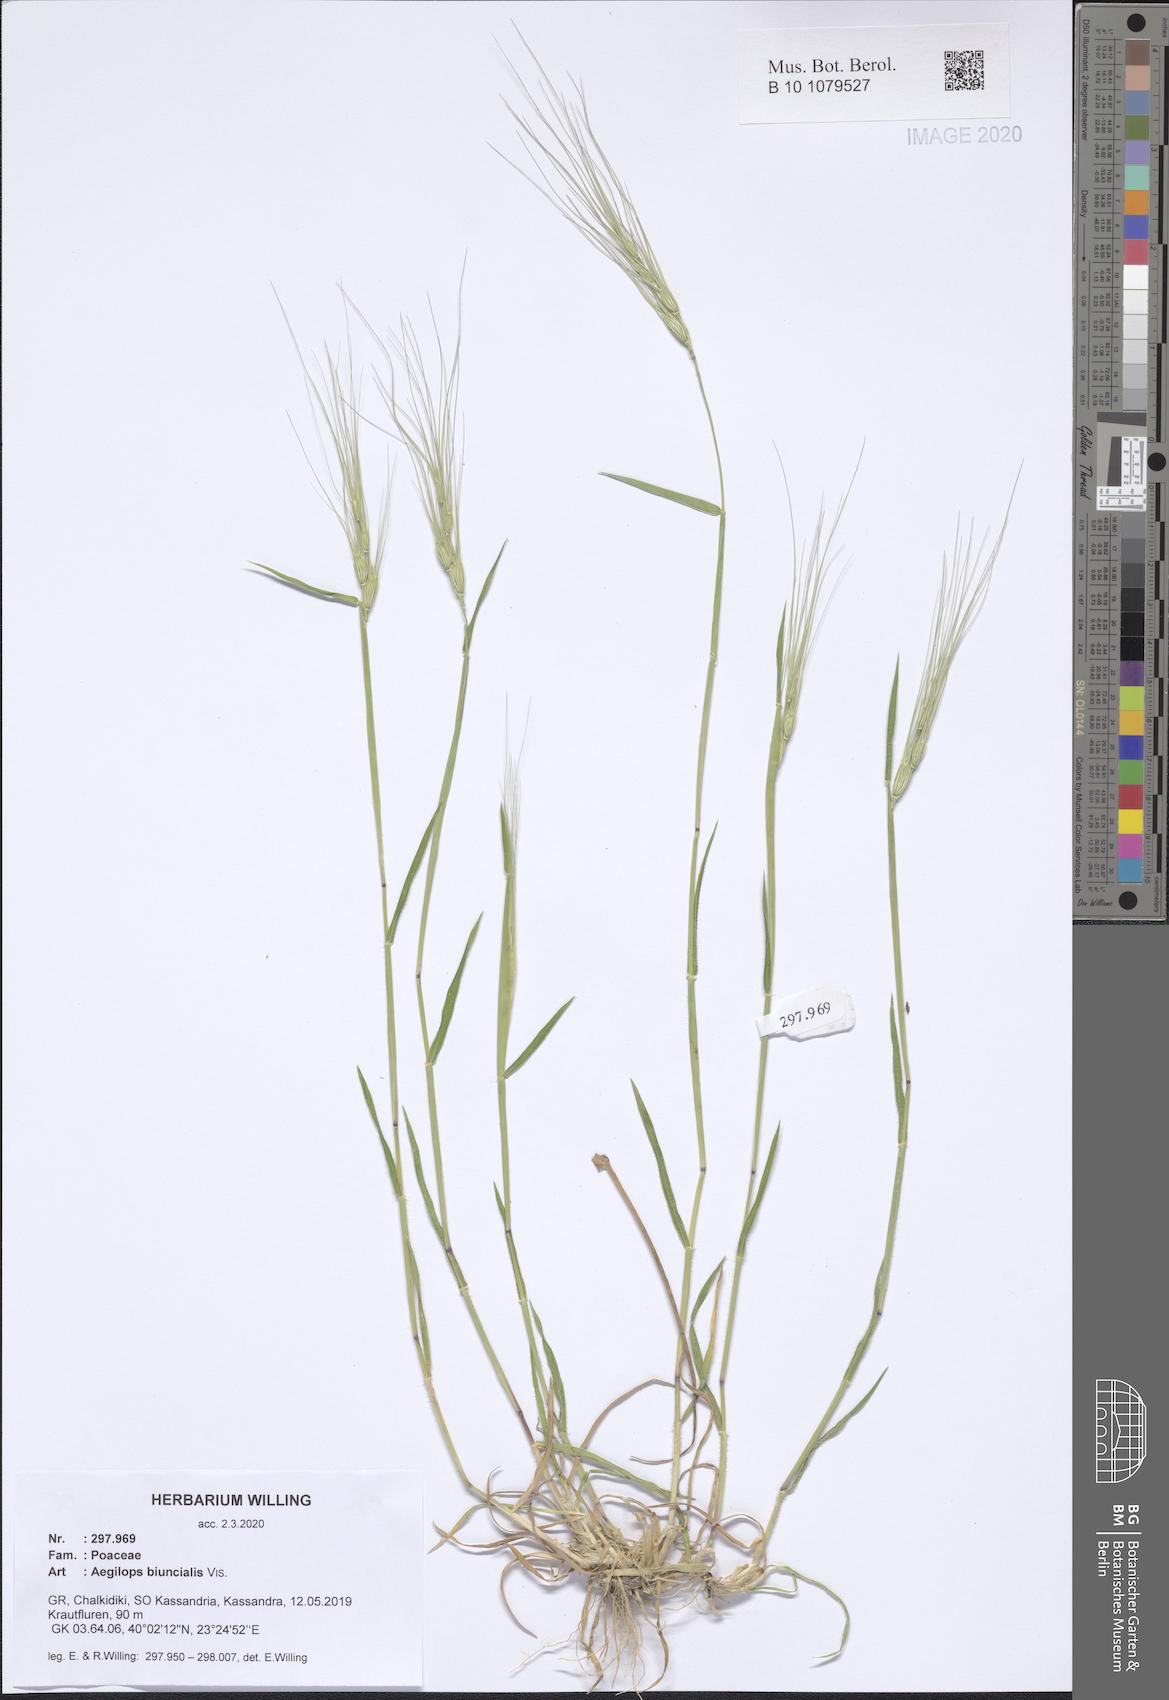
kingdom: Plantae
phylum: Tracheophyta
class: Liliopsida
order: Poales
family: Poaceae
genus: Aegilops
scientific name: Aegilops biuncialis
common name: Mediterranean aegilops
